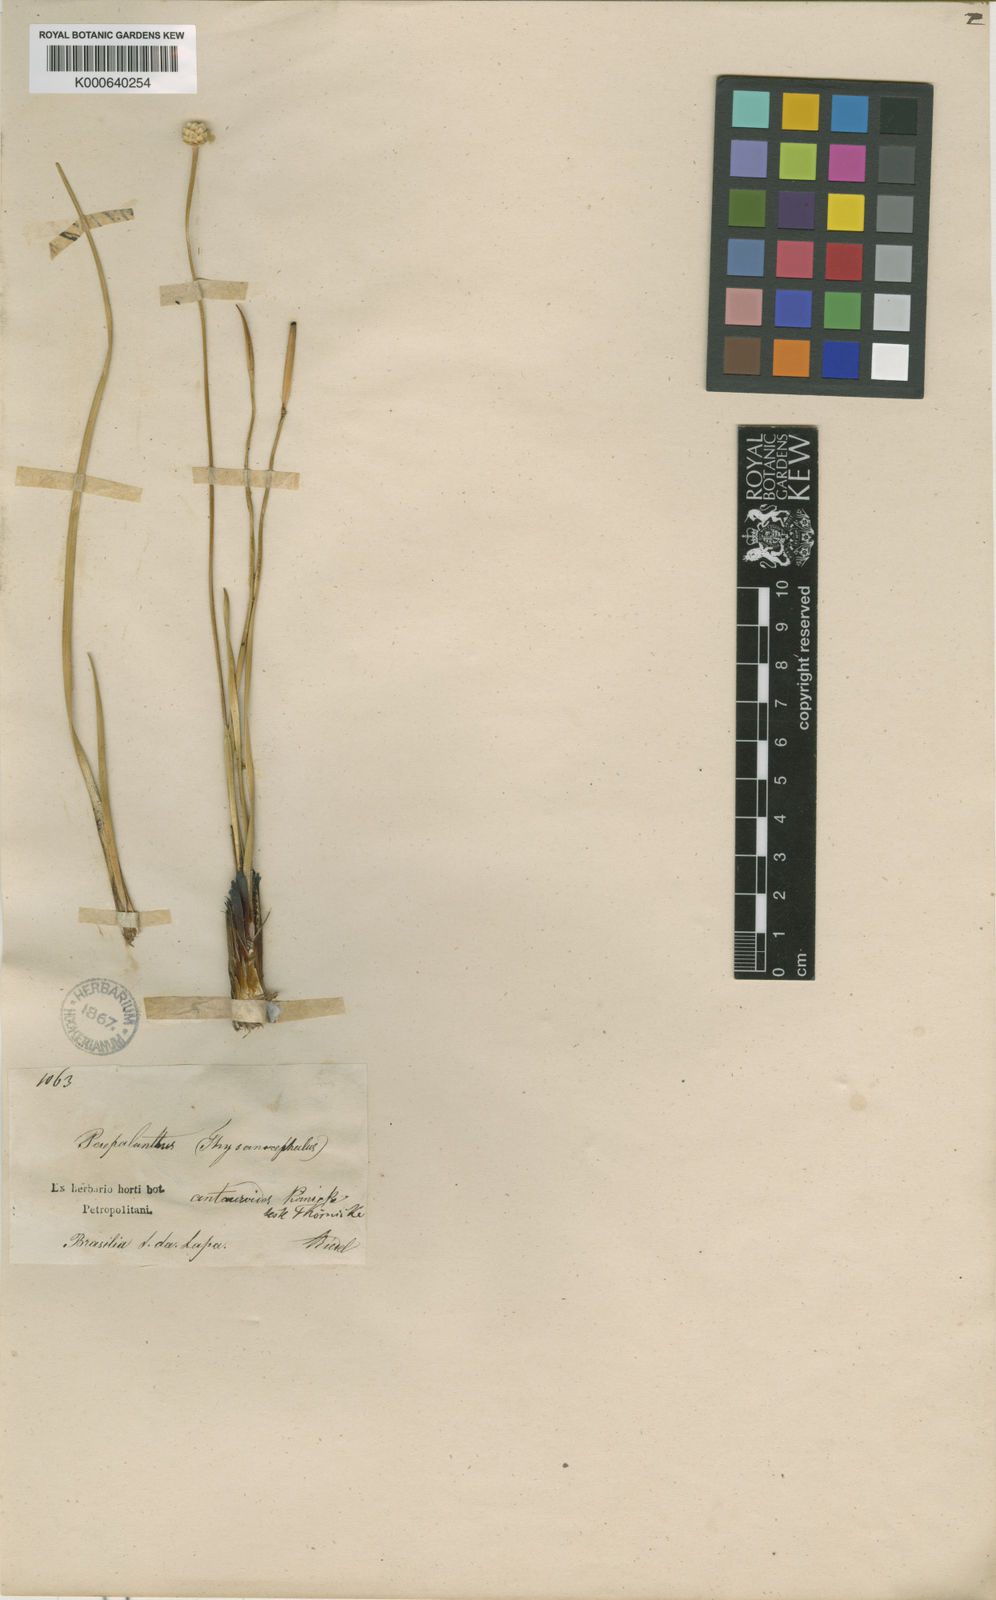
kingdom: Plantae
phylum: Tracheophyta
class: Liliopsida
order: Poales
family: Eriocaulaceae
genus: Comanthera
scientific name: Comanthera centauroides
